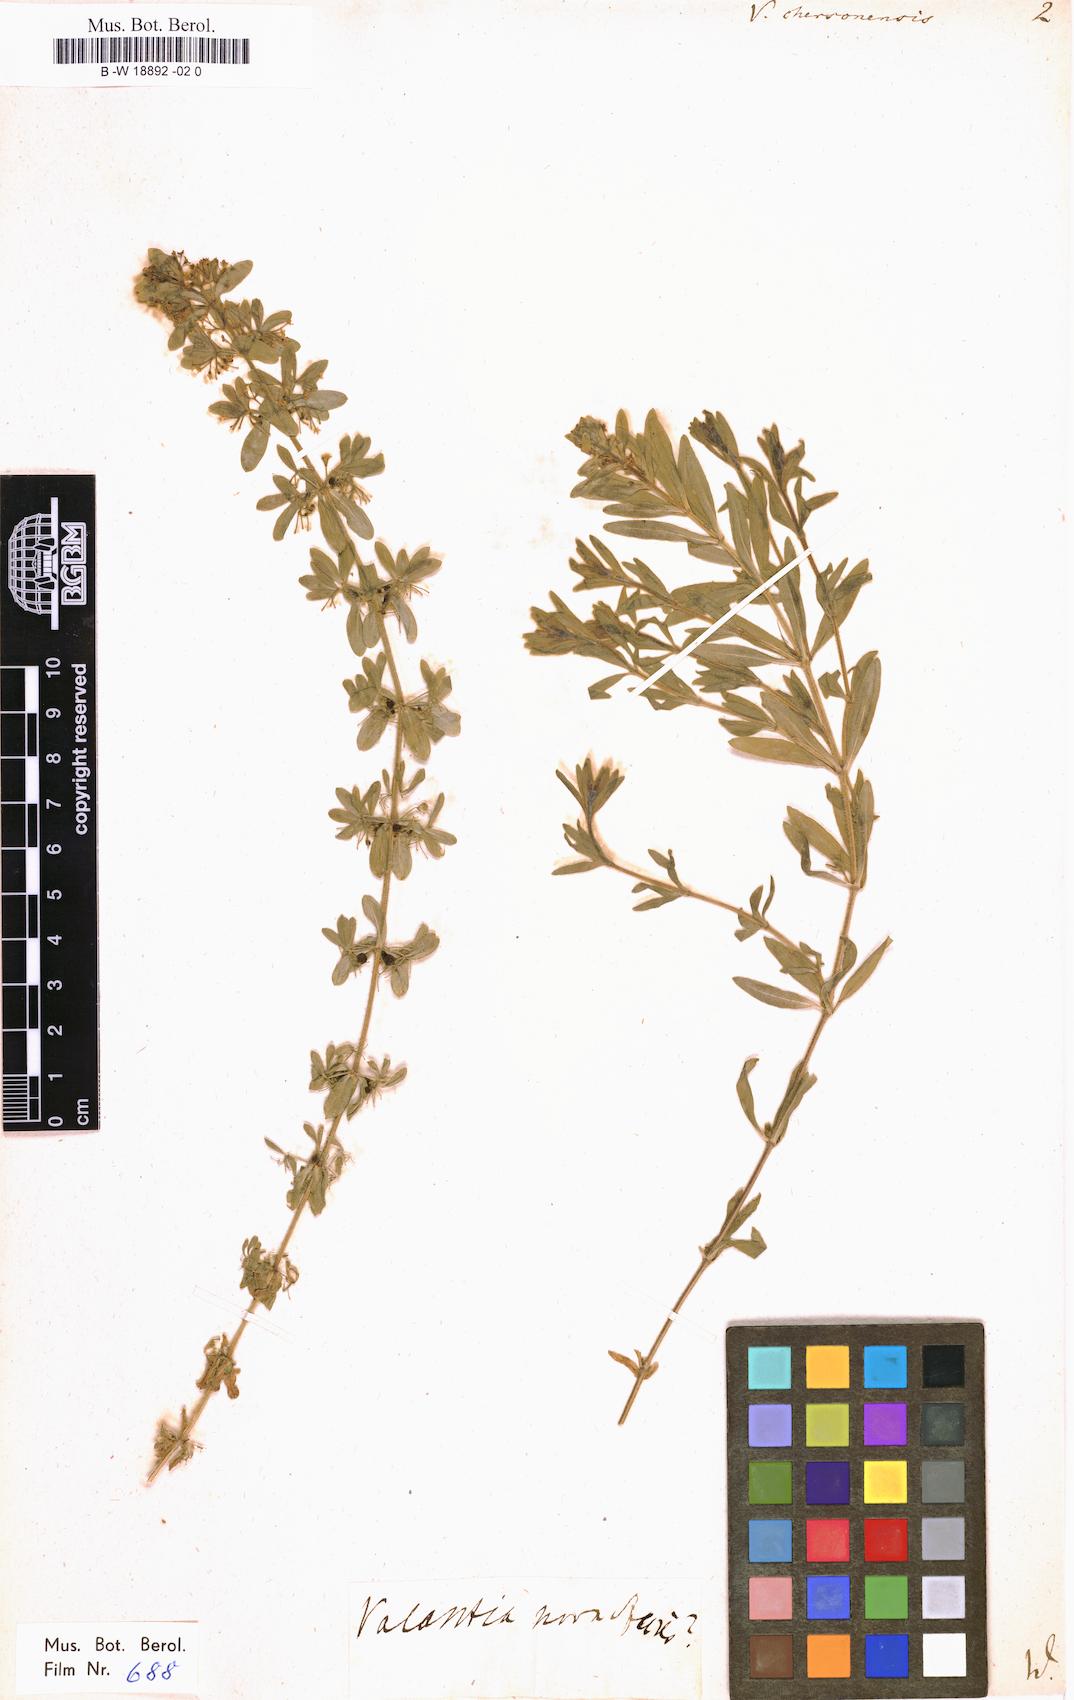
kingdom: Plantae
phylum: Tracheophyta
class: Magnoliopsida
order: Gentianales
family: Rubiaceae
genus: Cruciata
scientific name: Cruciata taurica
